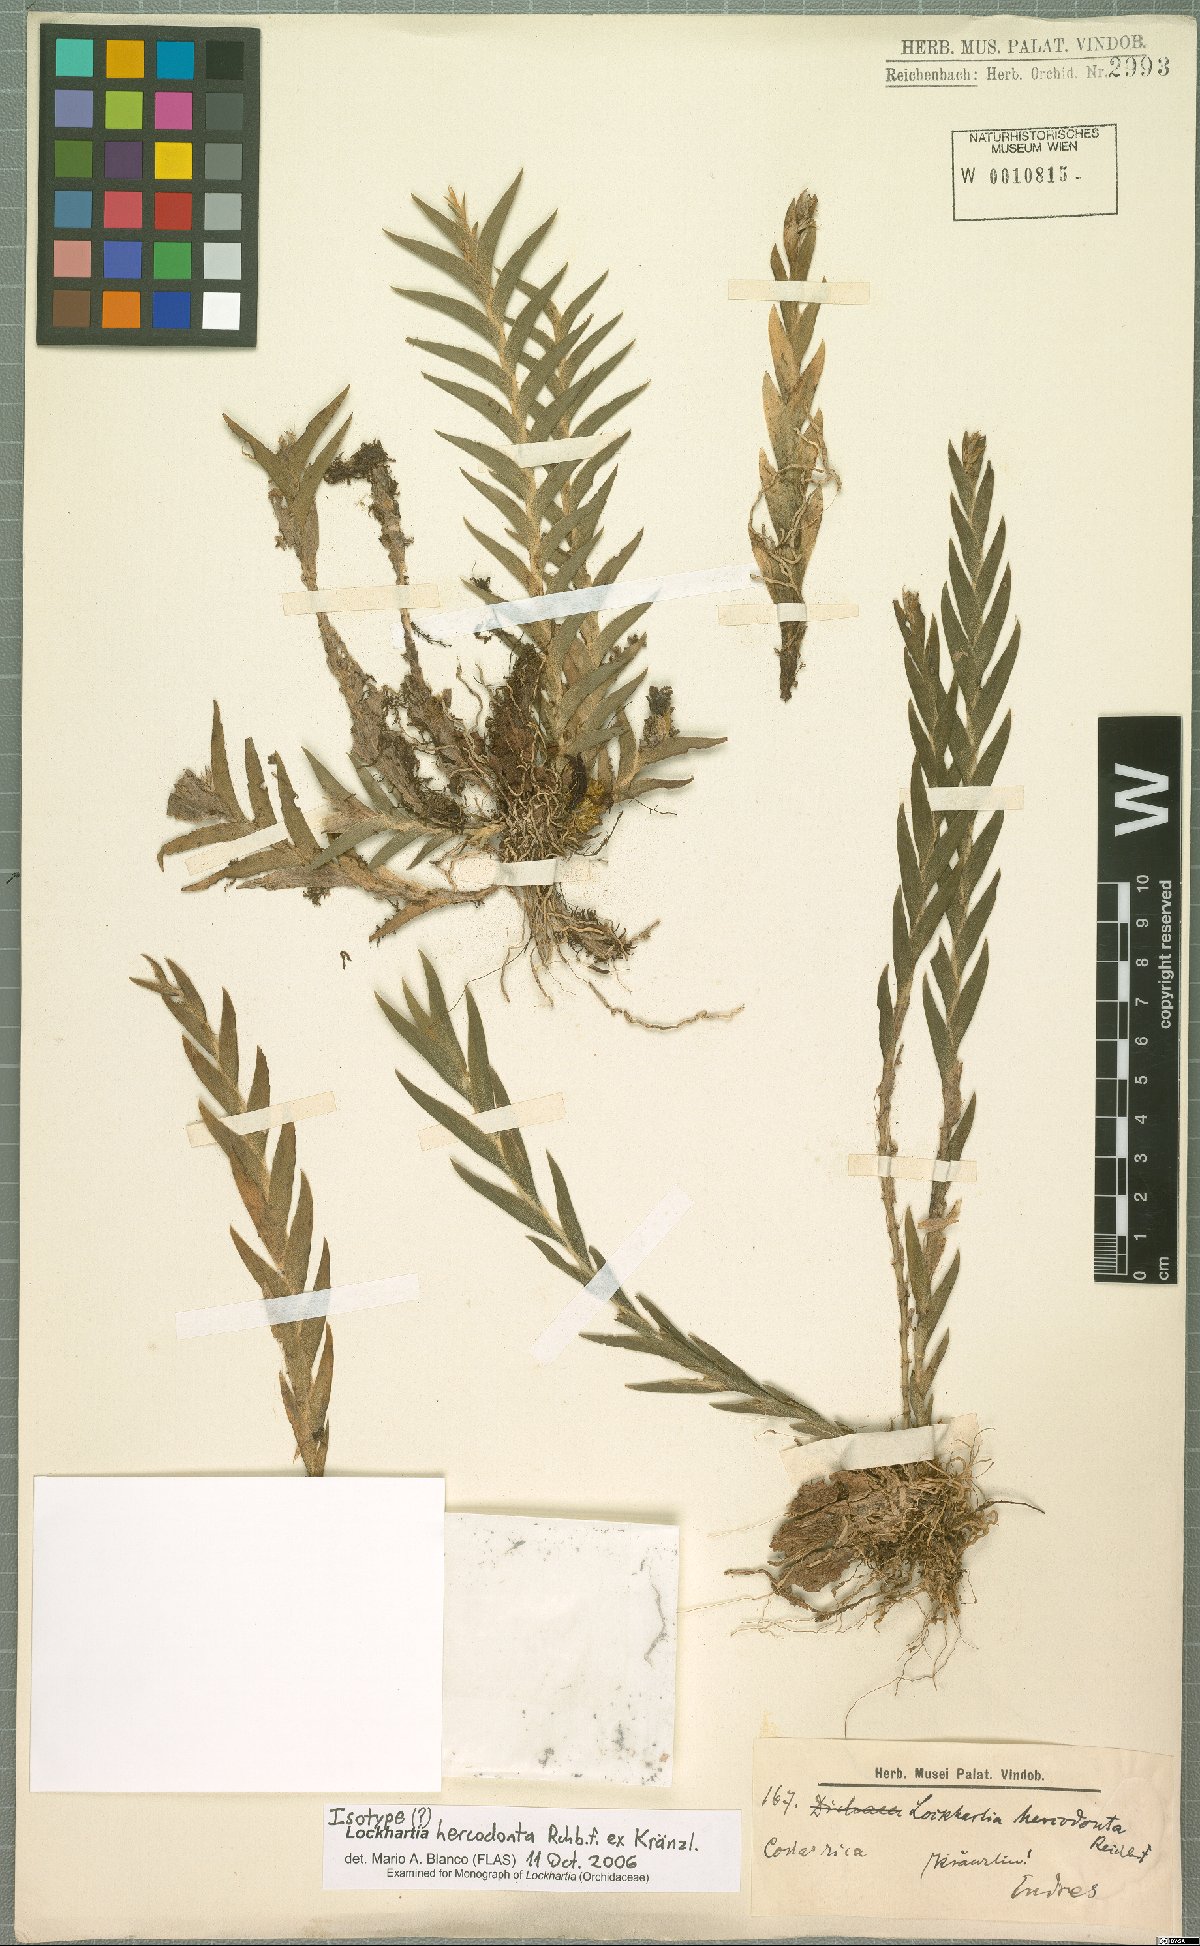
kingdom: Plantae
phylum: Tracheophyta
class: Liliopsida
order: Asparagales
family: Orchidaceae
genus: Lockhartia
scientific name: Lockhartia hercodonta
